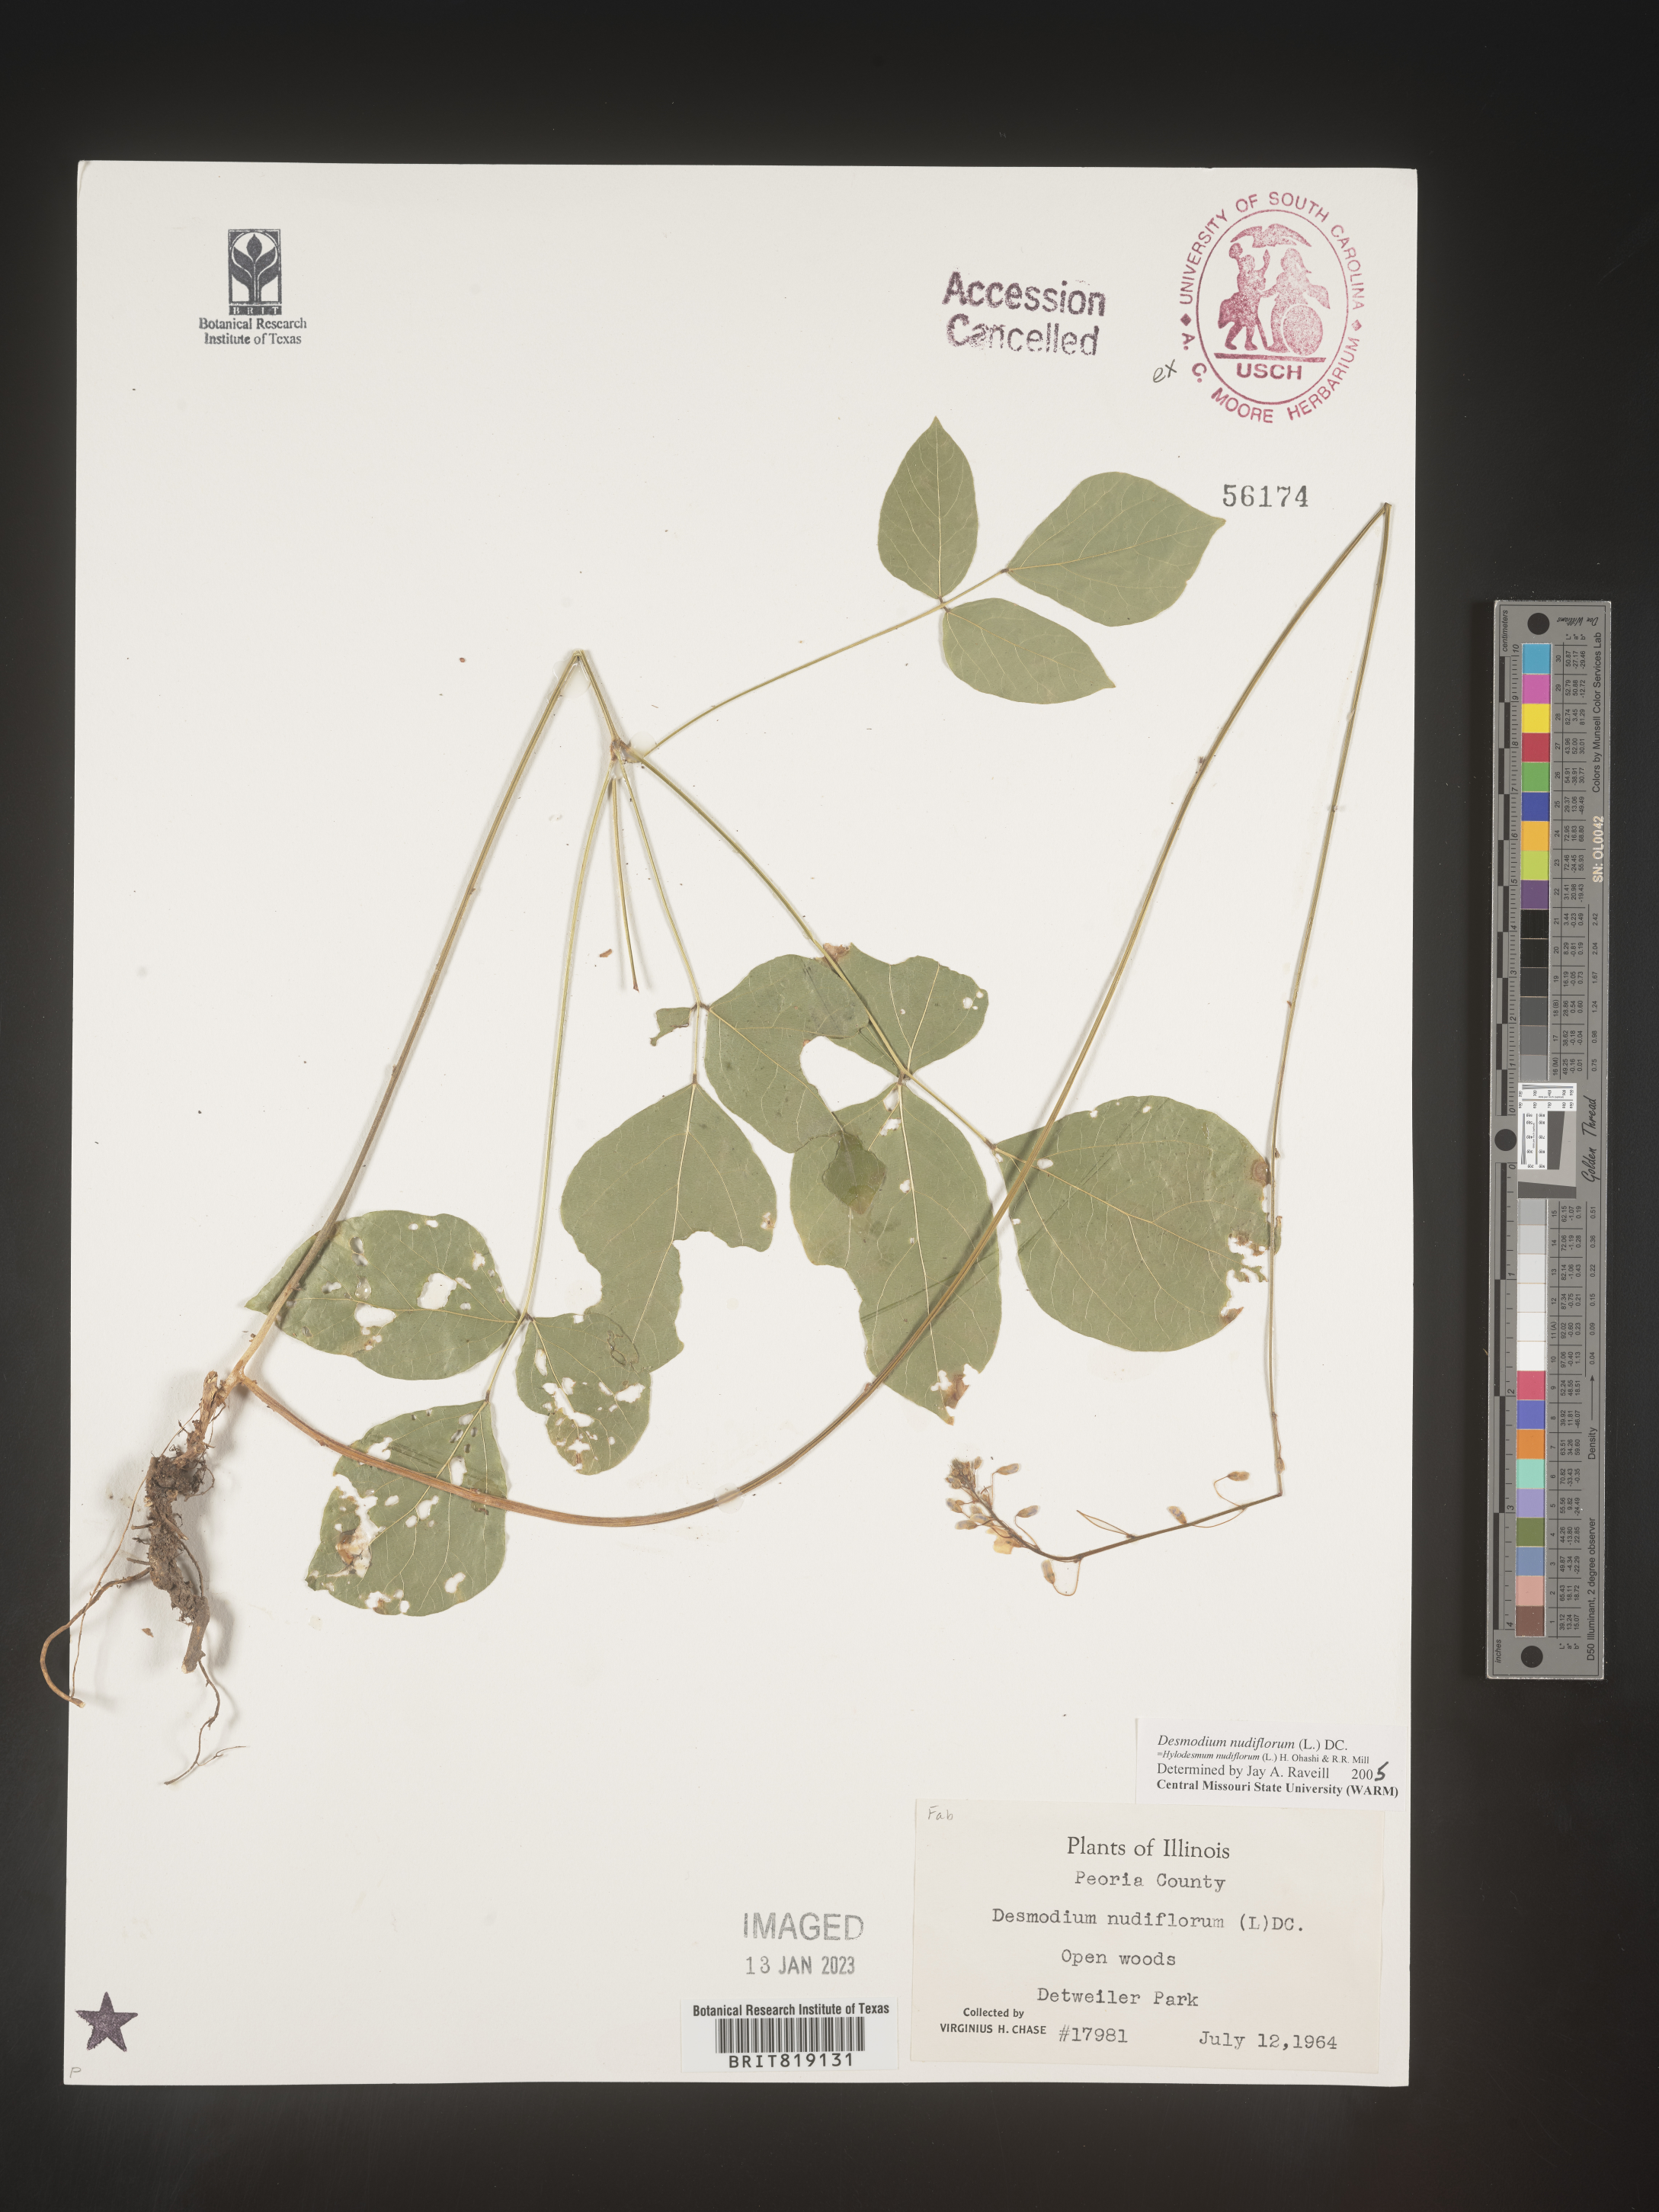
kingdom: Plantae
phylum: Tracheophyta
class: Magnoliopsida
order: Fabales
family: Fabaceae
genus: Hylodesmum
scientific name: Hylodesmum nudiflorum
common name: Bare-stemmed tick-trefoil
